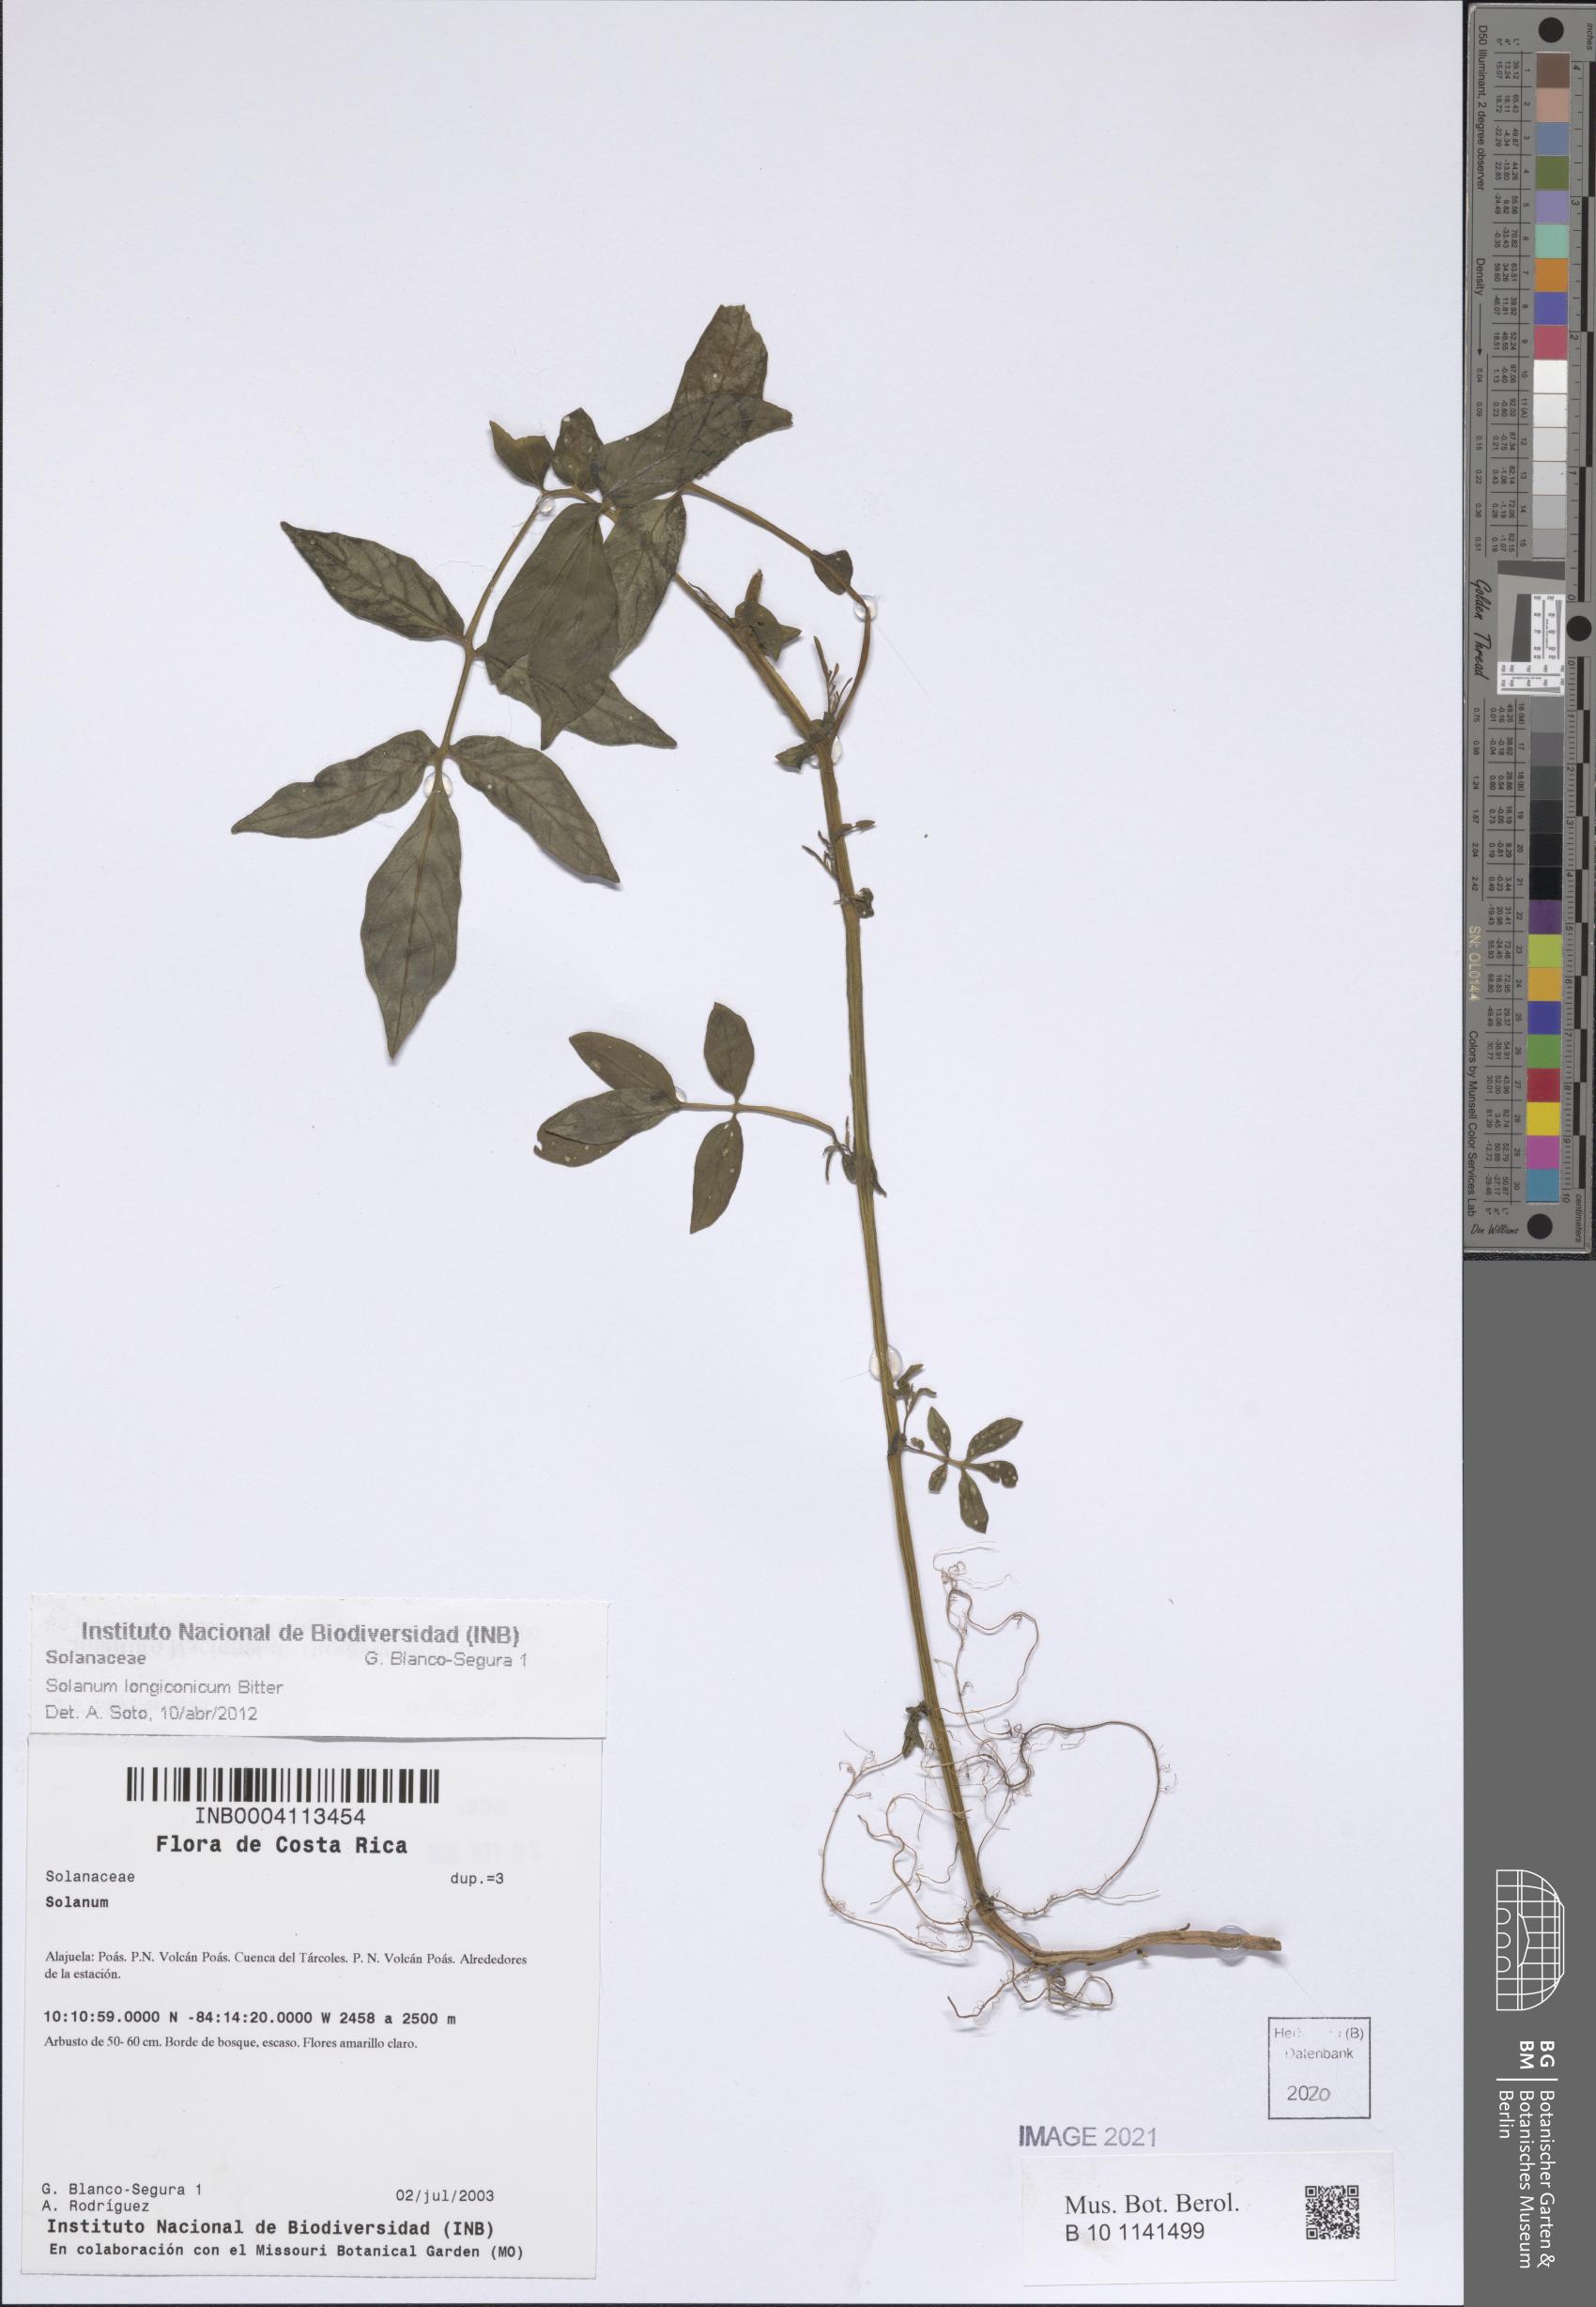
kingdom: Plantae
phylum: Tracheophyta
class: Magnoliopsida
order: Solanales
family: Solanaceae
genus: Solanum
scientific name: Solanum longiconicum
